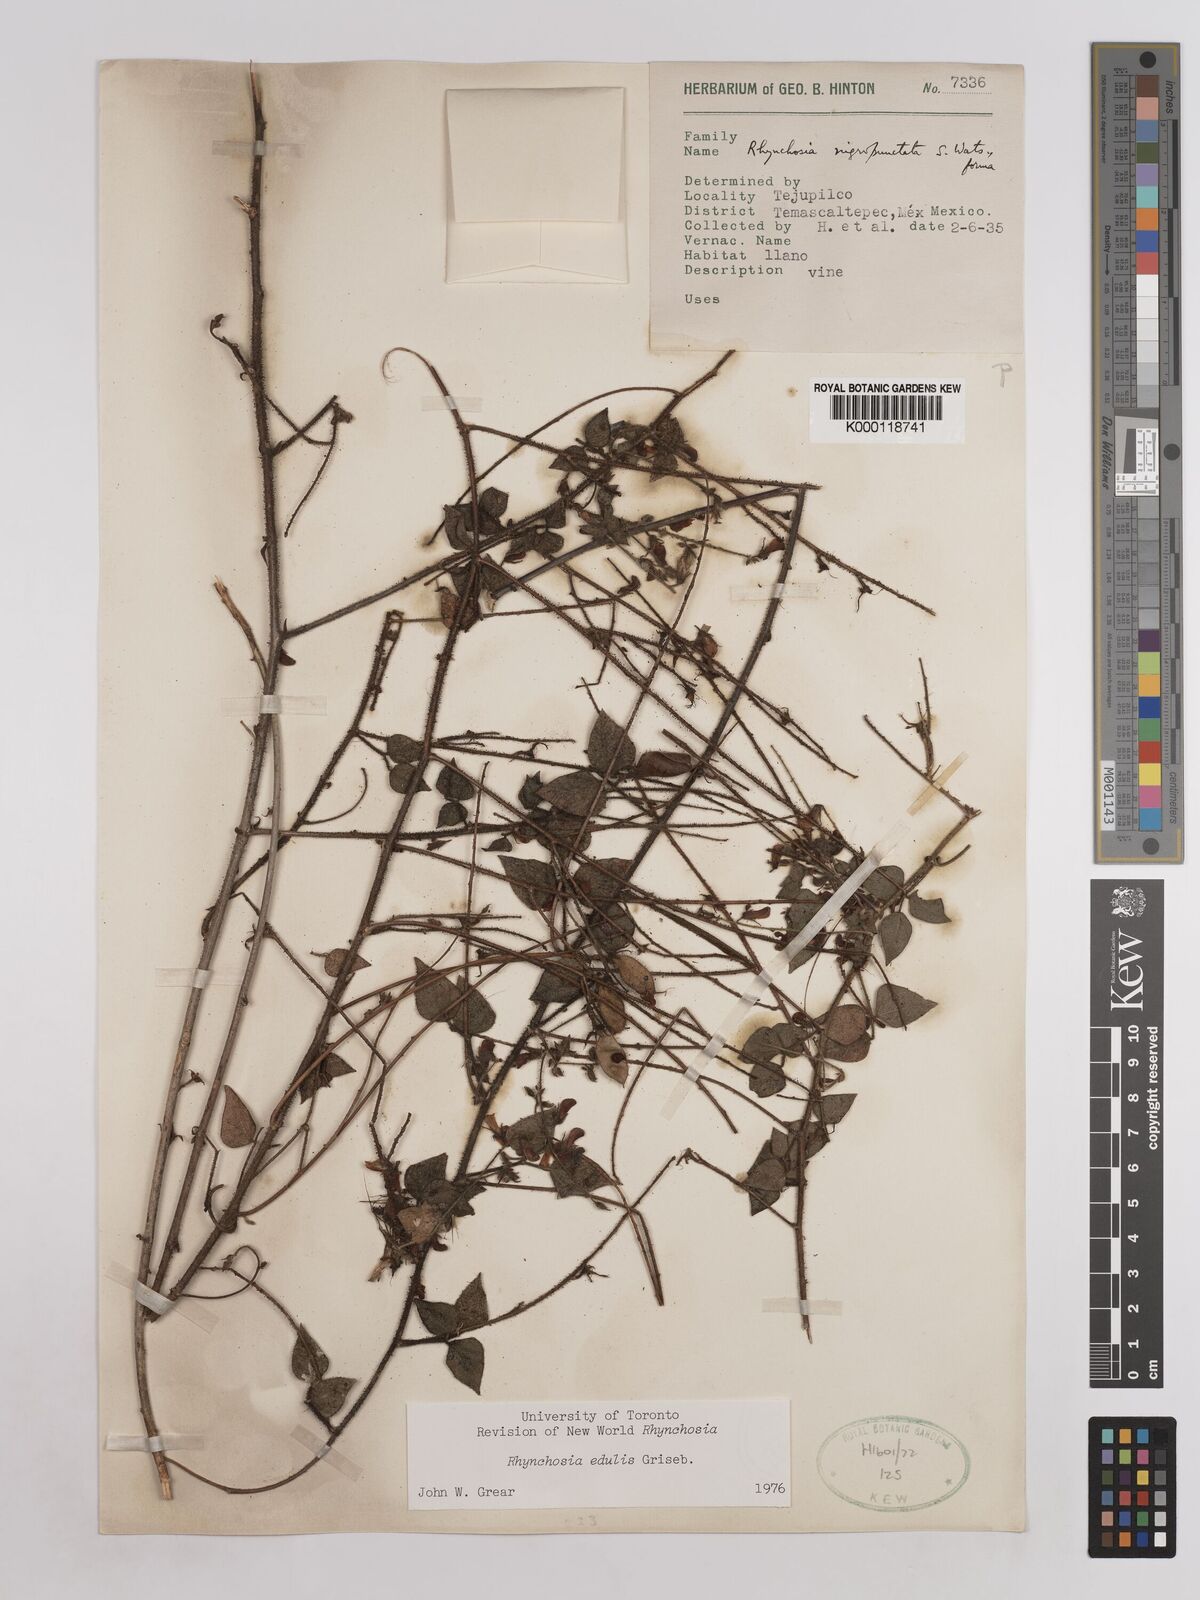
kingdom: Plantae
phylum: Tracheophyta
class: Magnoliopsida
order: Fabales
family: Fabaceae
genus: Rhynchosia
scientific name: Rhynchosia edulis
